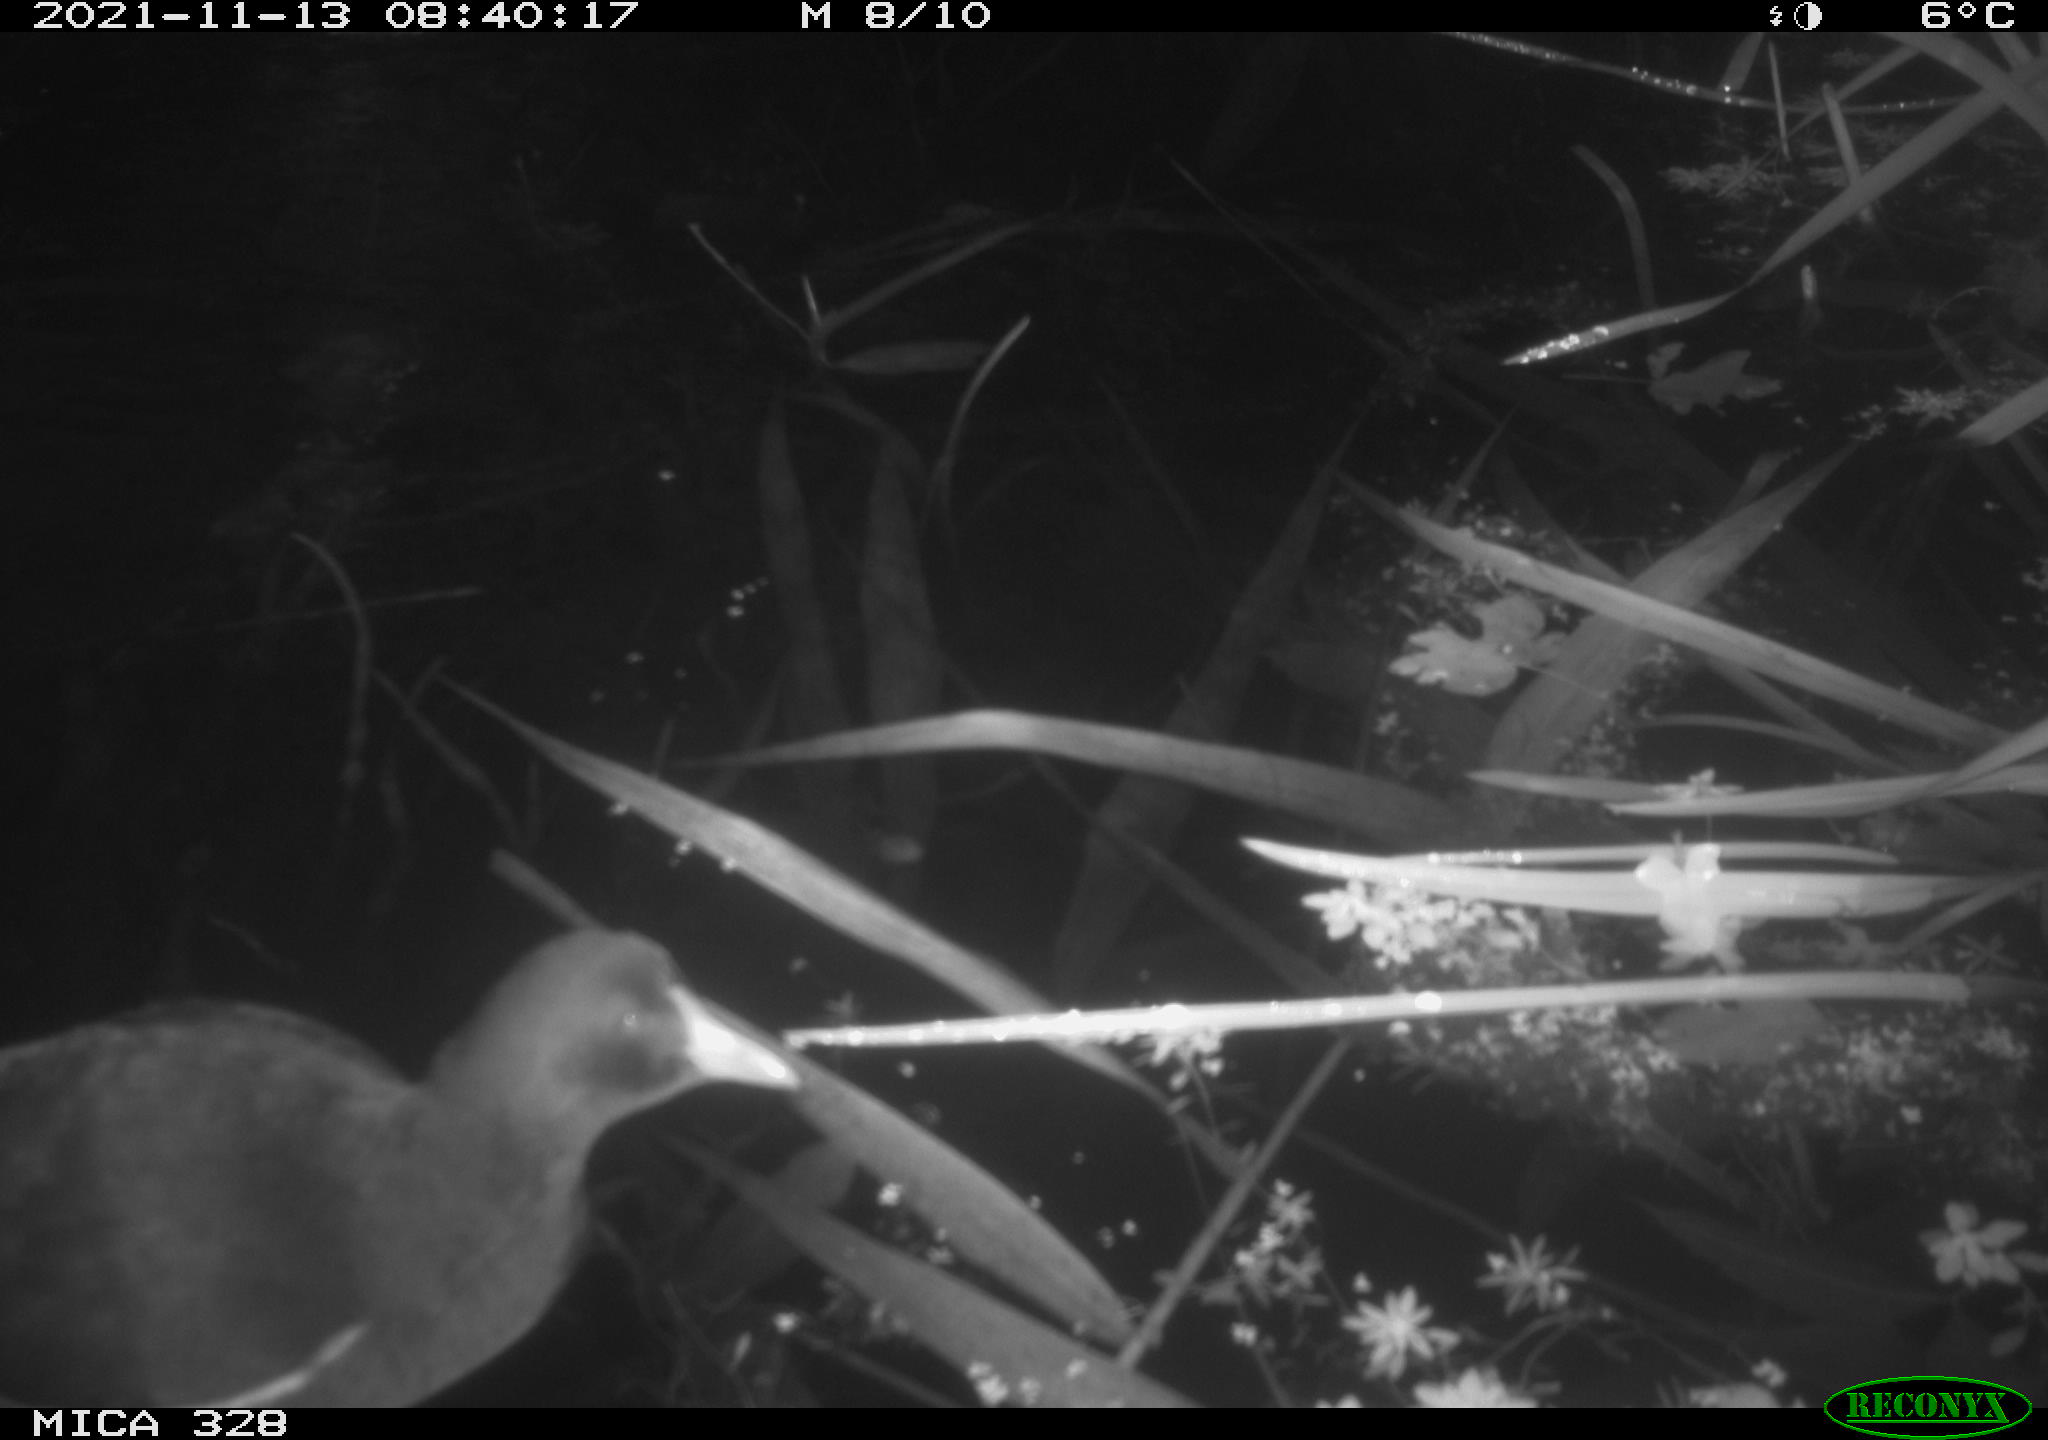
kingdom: Animalia
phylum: Chordata
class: Aves
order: Gruiformes
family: Rallidae
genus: Gallinula
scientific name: Gallinula chloropus
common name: Common moorhen
